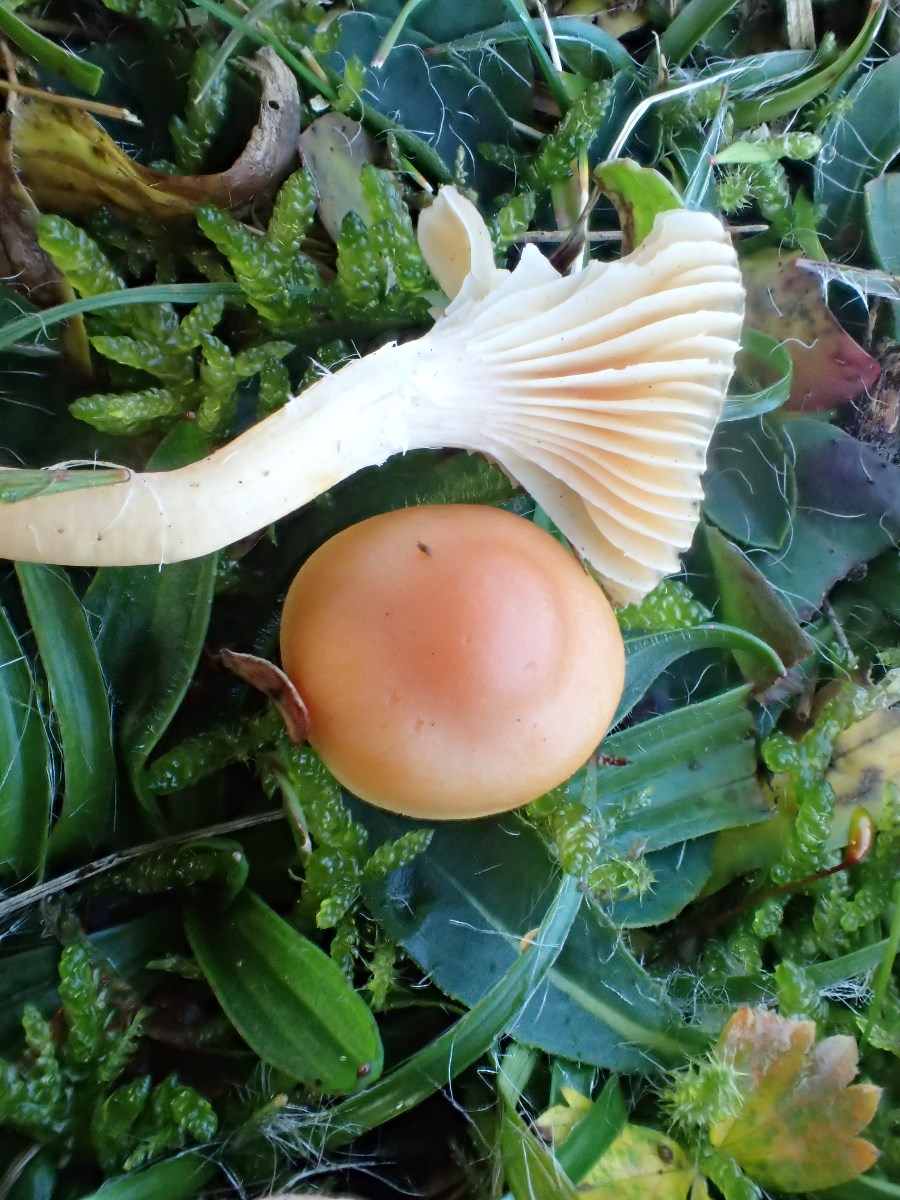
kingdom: Fungi
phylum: Basidiomycota
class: Agaricomycetes
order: Agaricales
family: Hygrophoraceae
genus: Cuphophyllus
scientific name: Cuphophyllus pratensis
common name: eng-vokshat
